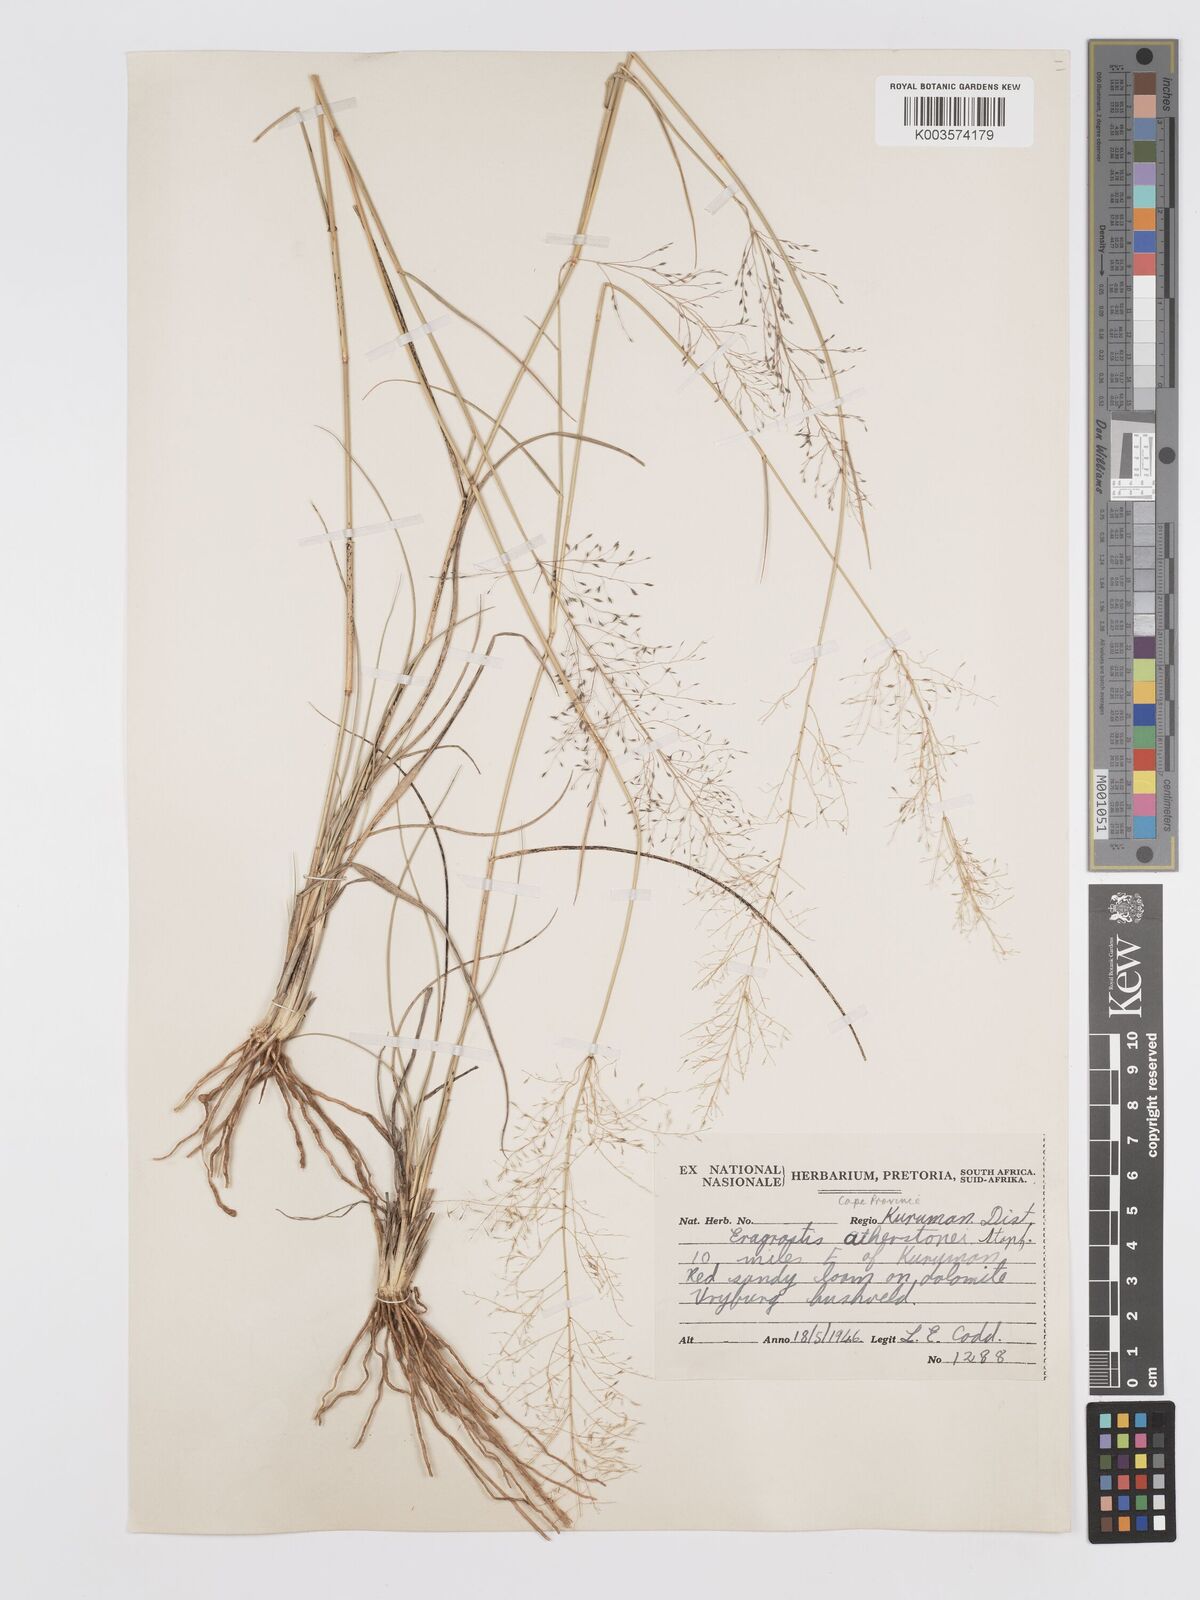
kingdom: Plantae
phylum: Tracheophyta
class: Liliopsida
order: Poales
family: Poaceae
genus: Eragrostis
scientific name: Eragrostis cylindriflora
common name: Cylinderflower lovegrass
